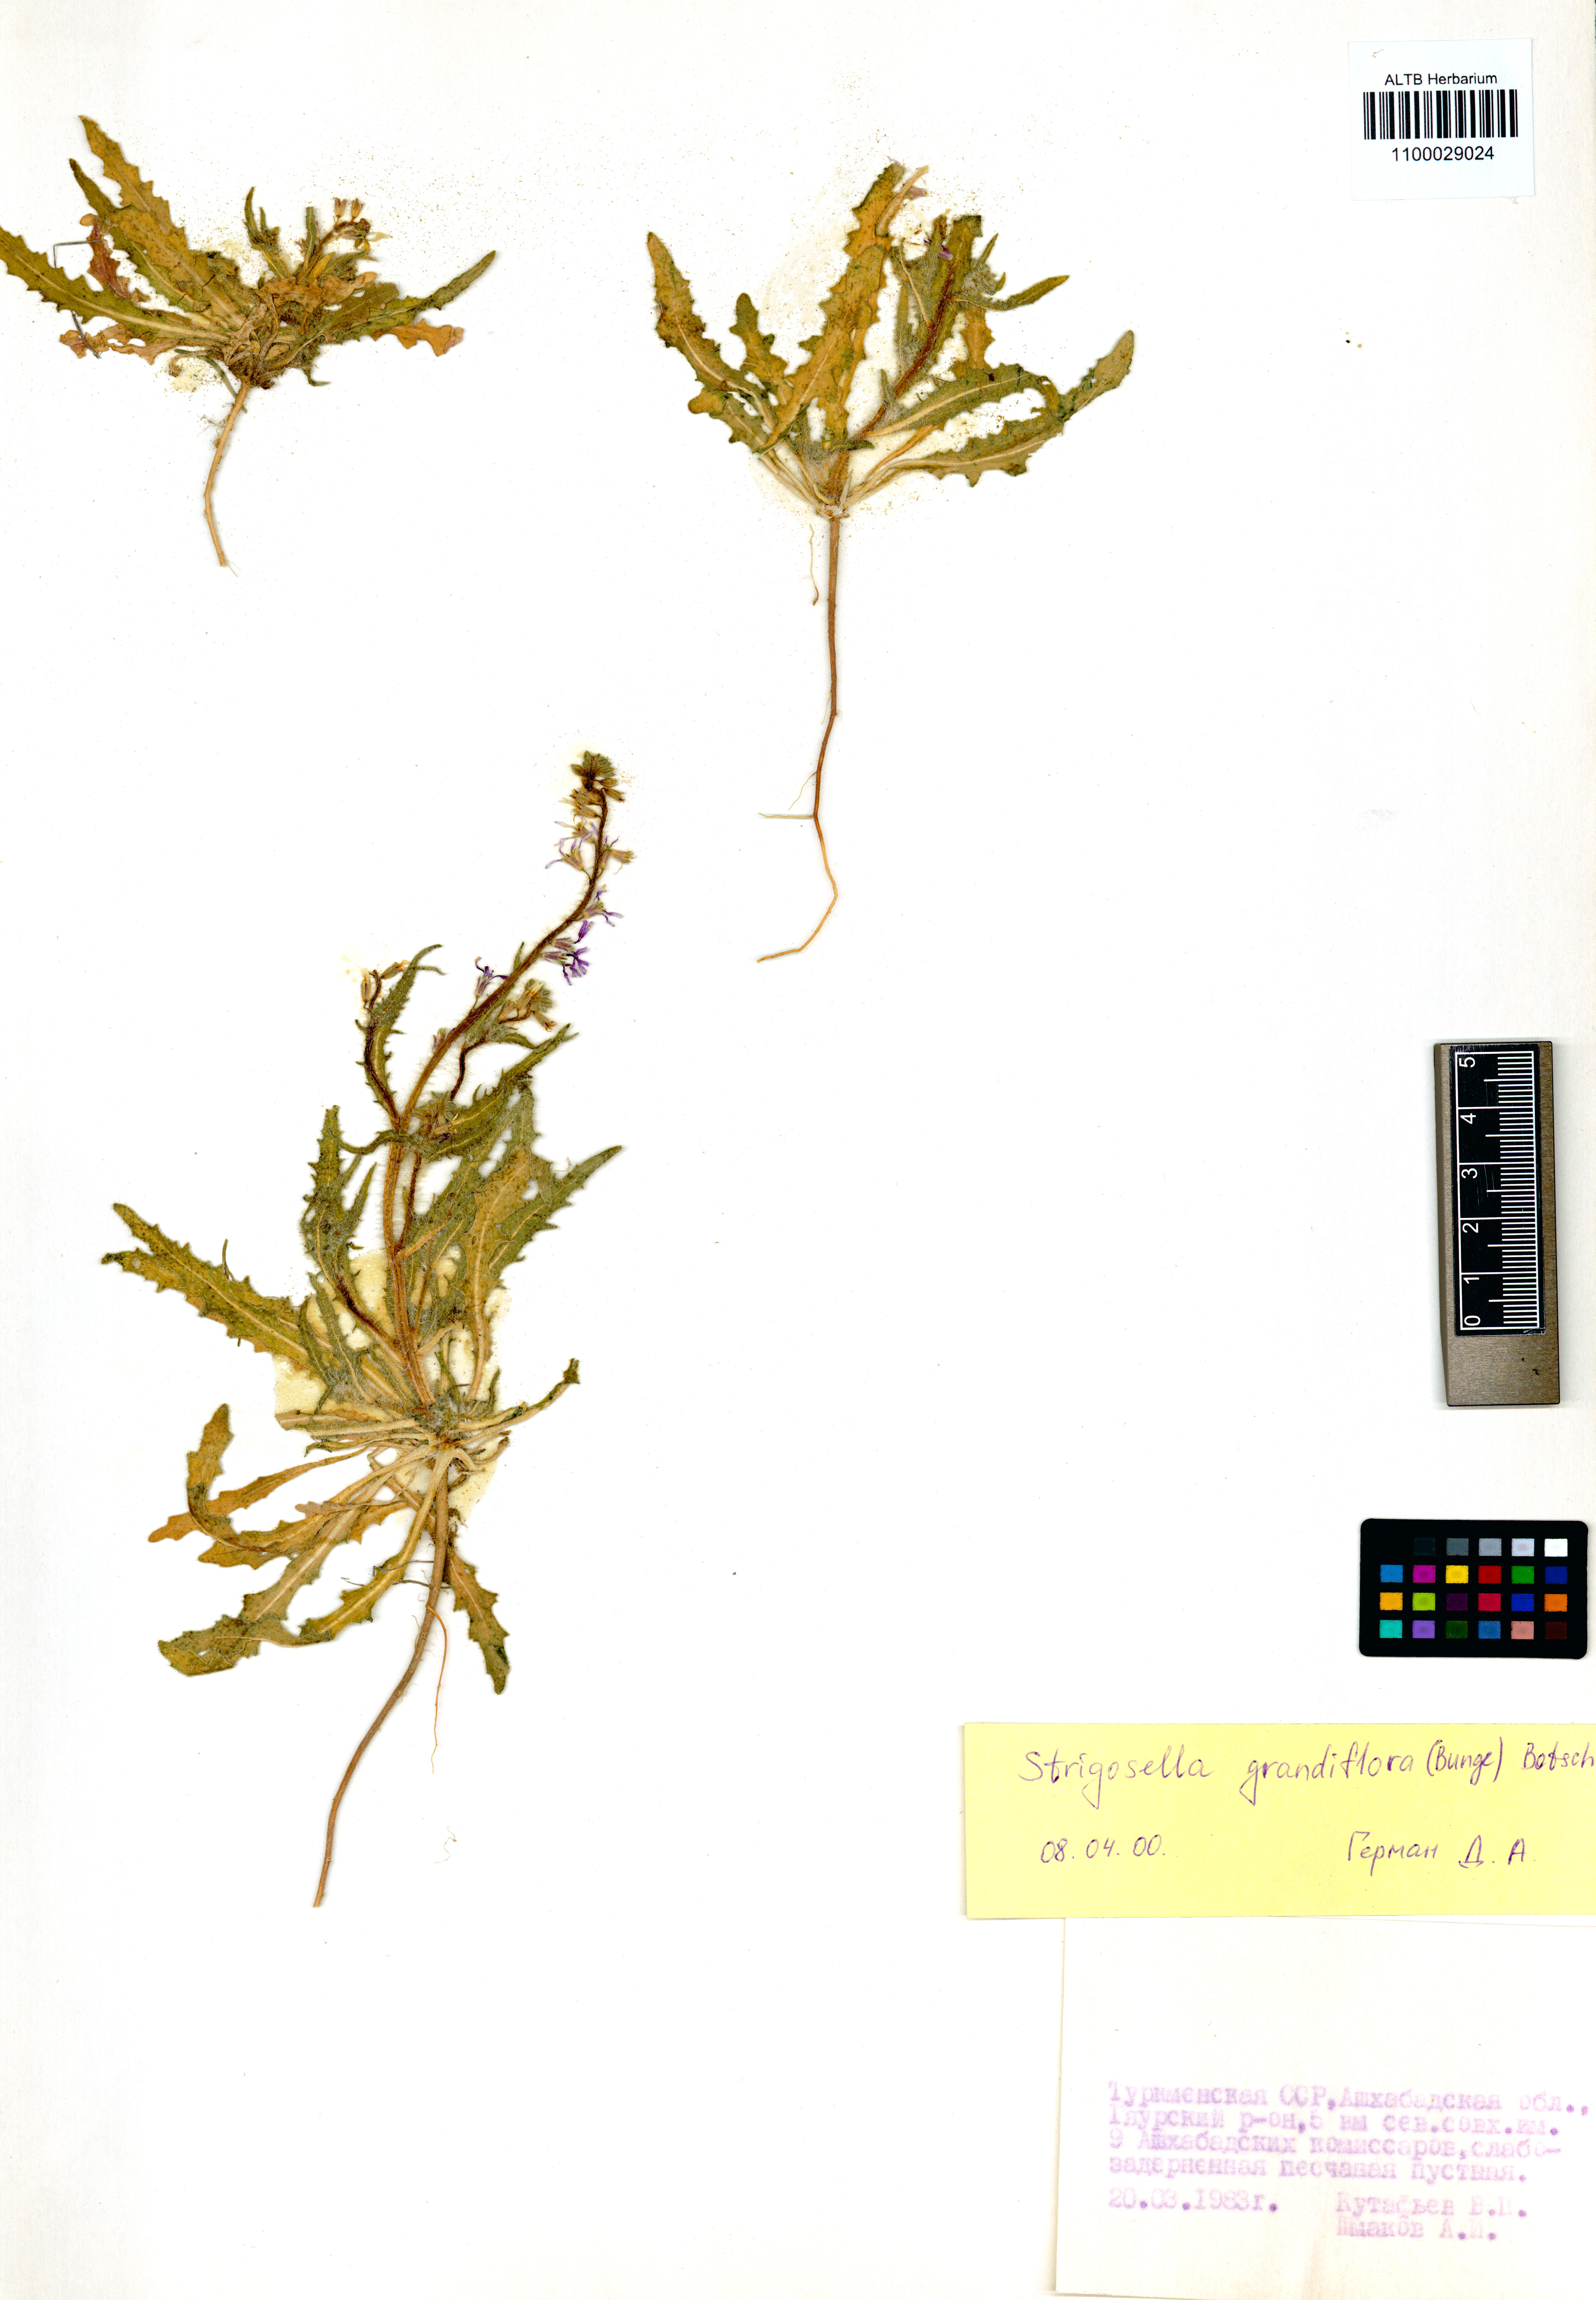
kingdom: Plantae
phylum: Tracheophyta
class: Magnoliopsida
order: Brassicales
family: Brassicaceae
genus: Strigosella
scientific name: Strigosella grandiflora
